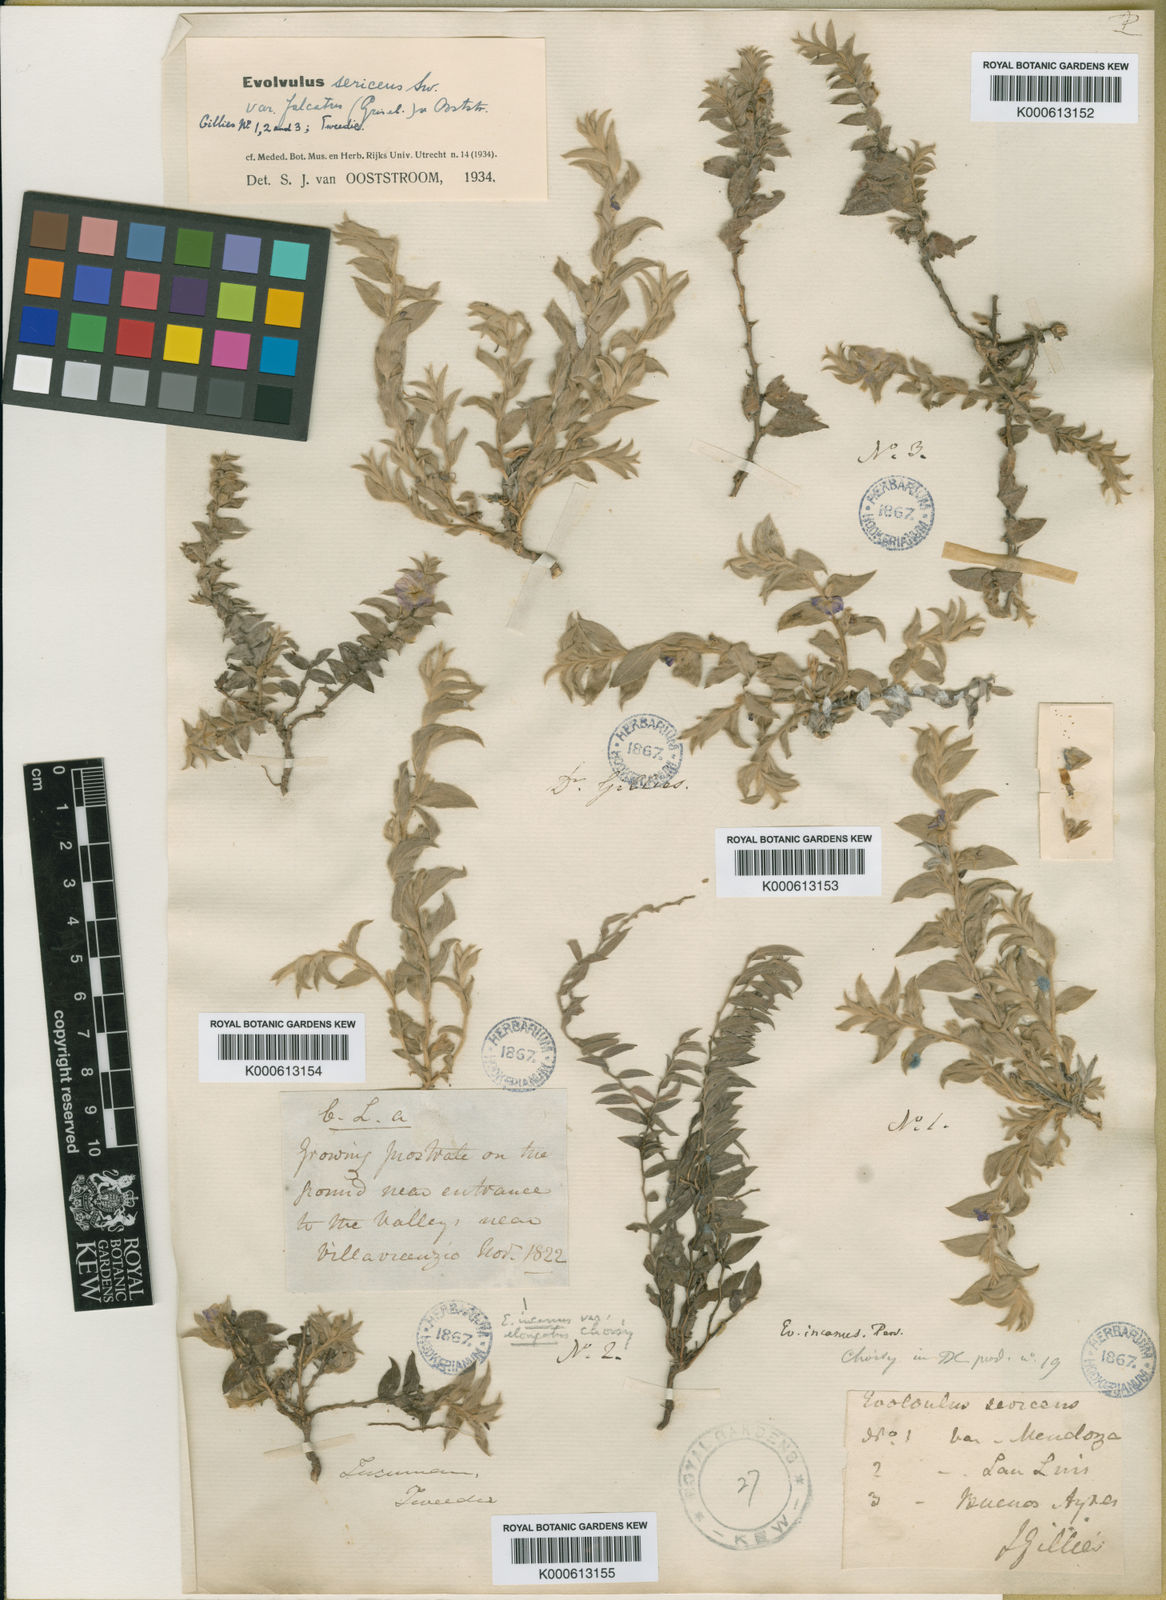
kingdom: Plantae
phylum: Tracheophyta
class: Magnoliopsida
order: Solanales
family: Convolvulaceae
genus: Evolvulus
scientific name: Evolvulus sericeus
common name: Blue dots
